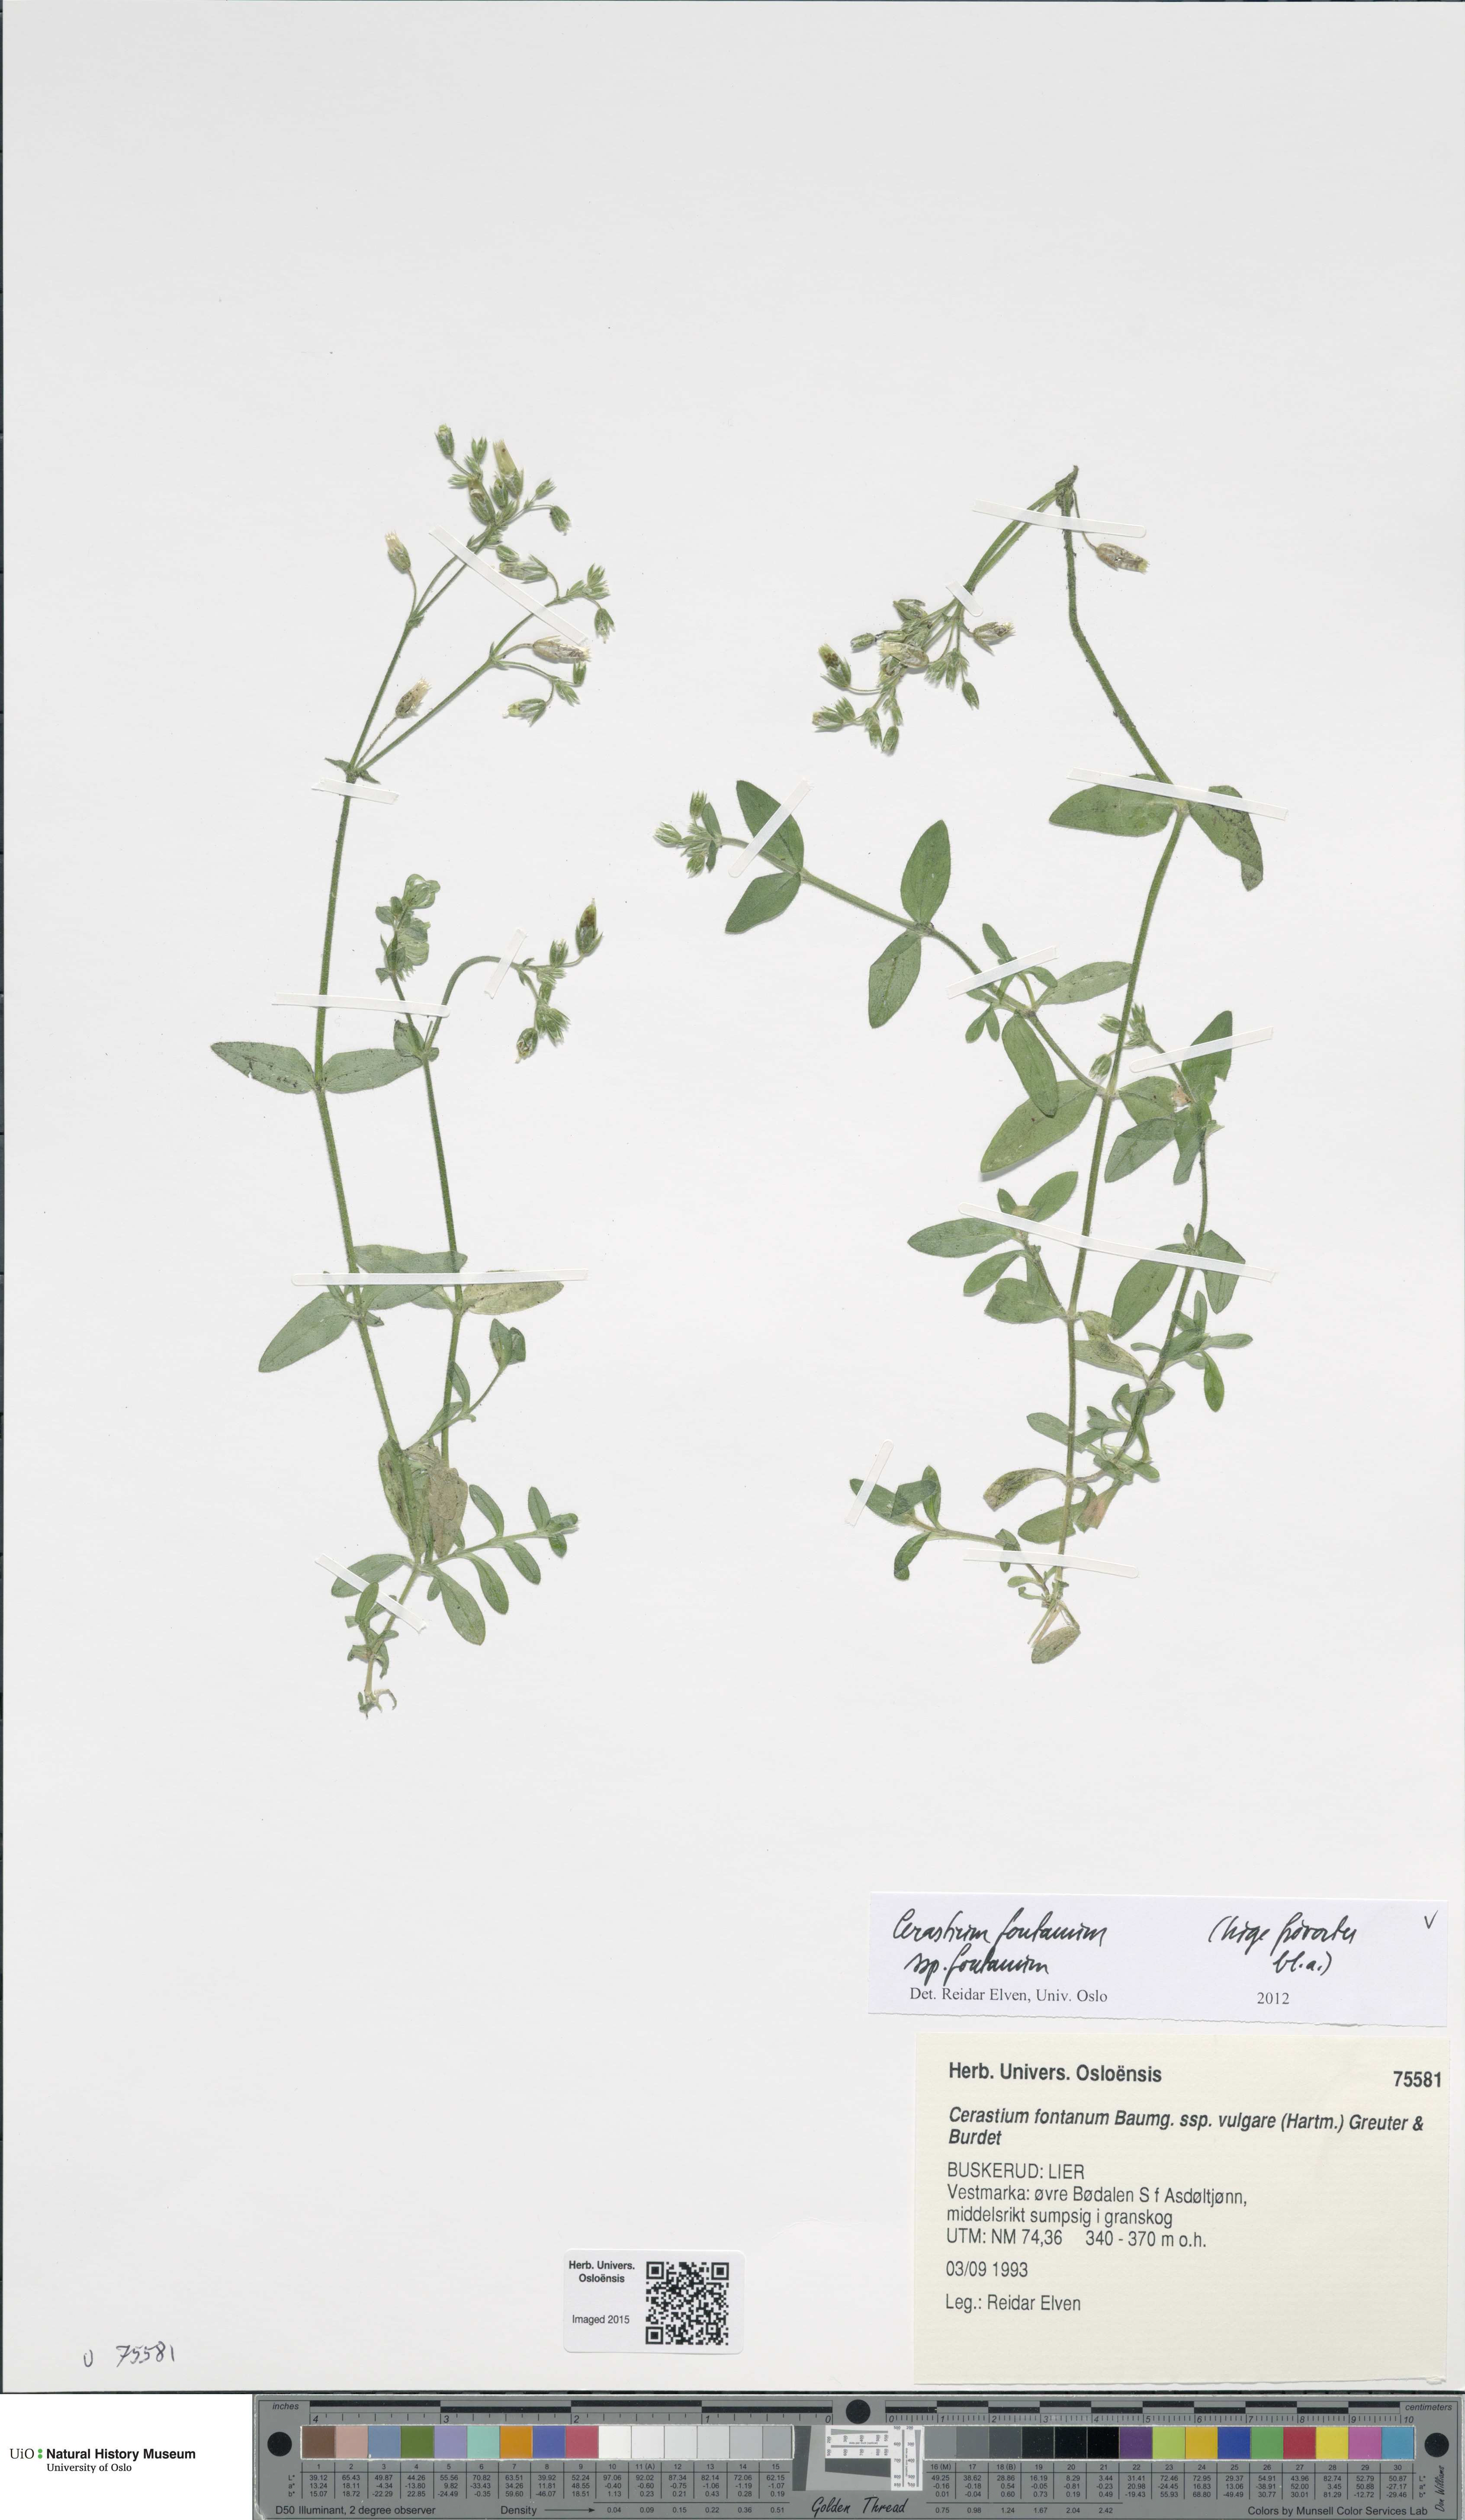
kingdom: Plantae
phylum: Tracheophyta
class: Magnoliopsida
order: Caryophyllales
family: Caryophyllaceae
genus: Cerastium
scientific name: Cerastium fontanum
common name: Common mouse-ear
